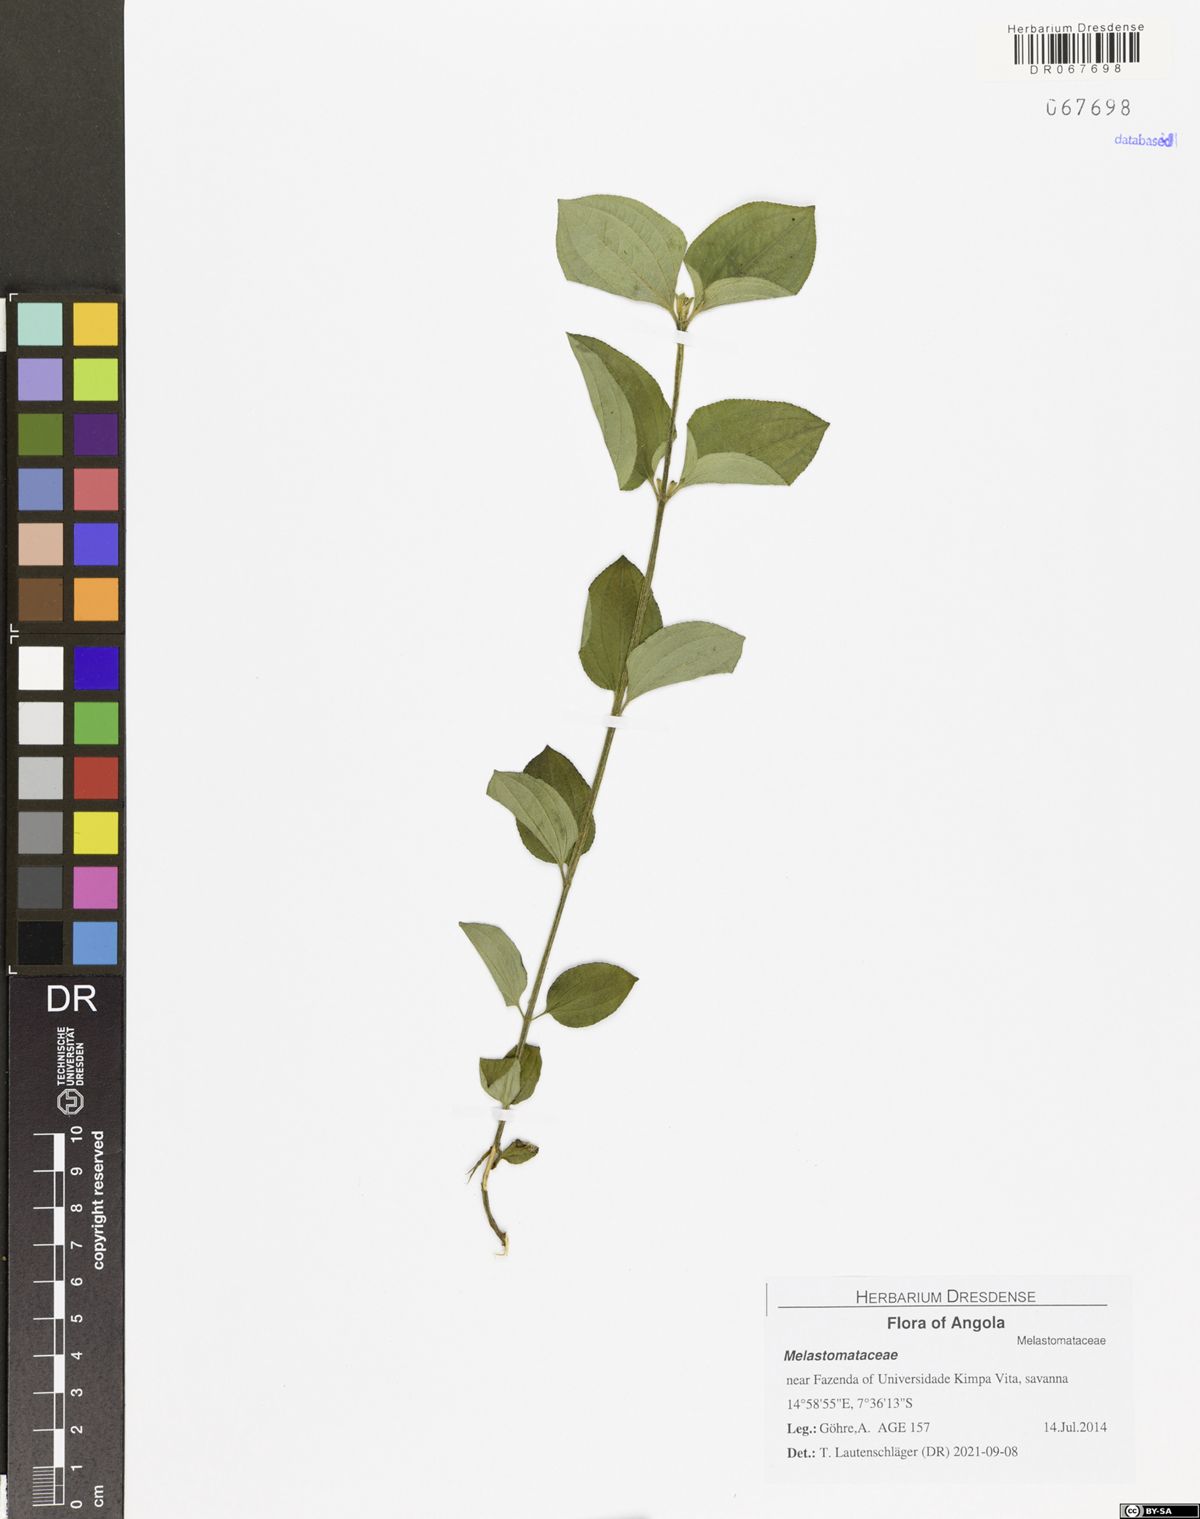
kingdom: Plantae
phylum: Tracheophyta
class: Magnoliopsida
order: Myrtales
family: Melastomataceae
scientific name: Melastomataceae
